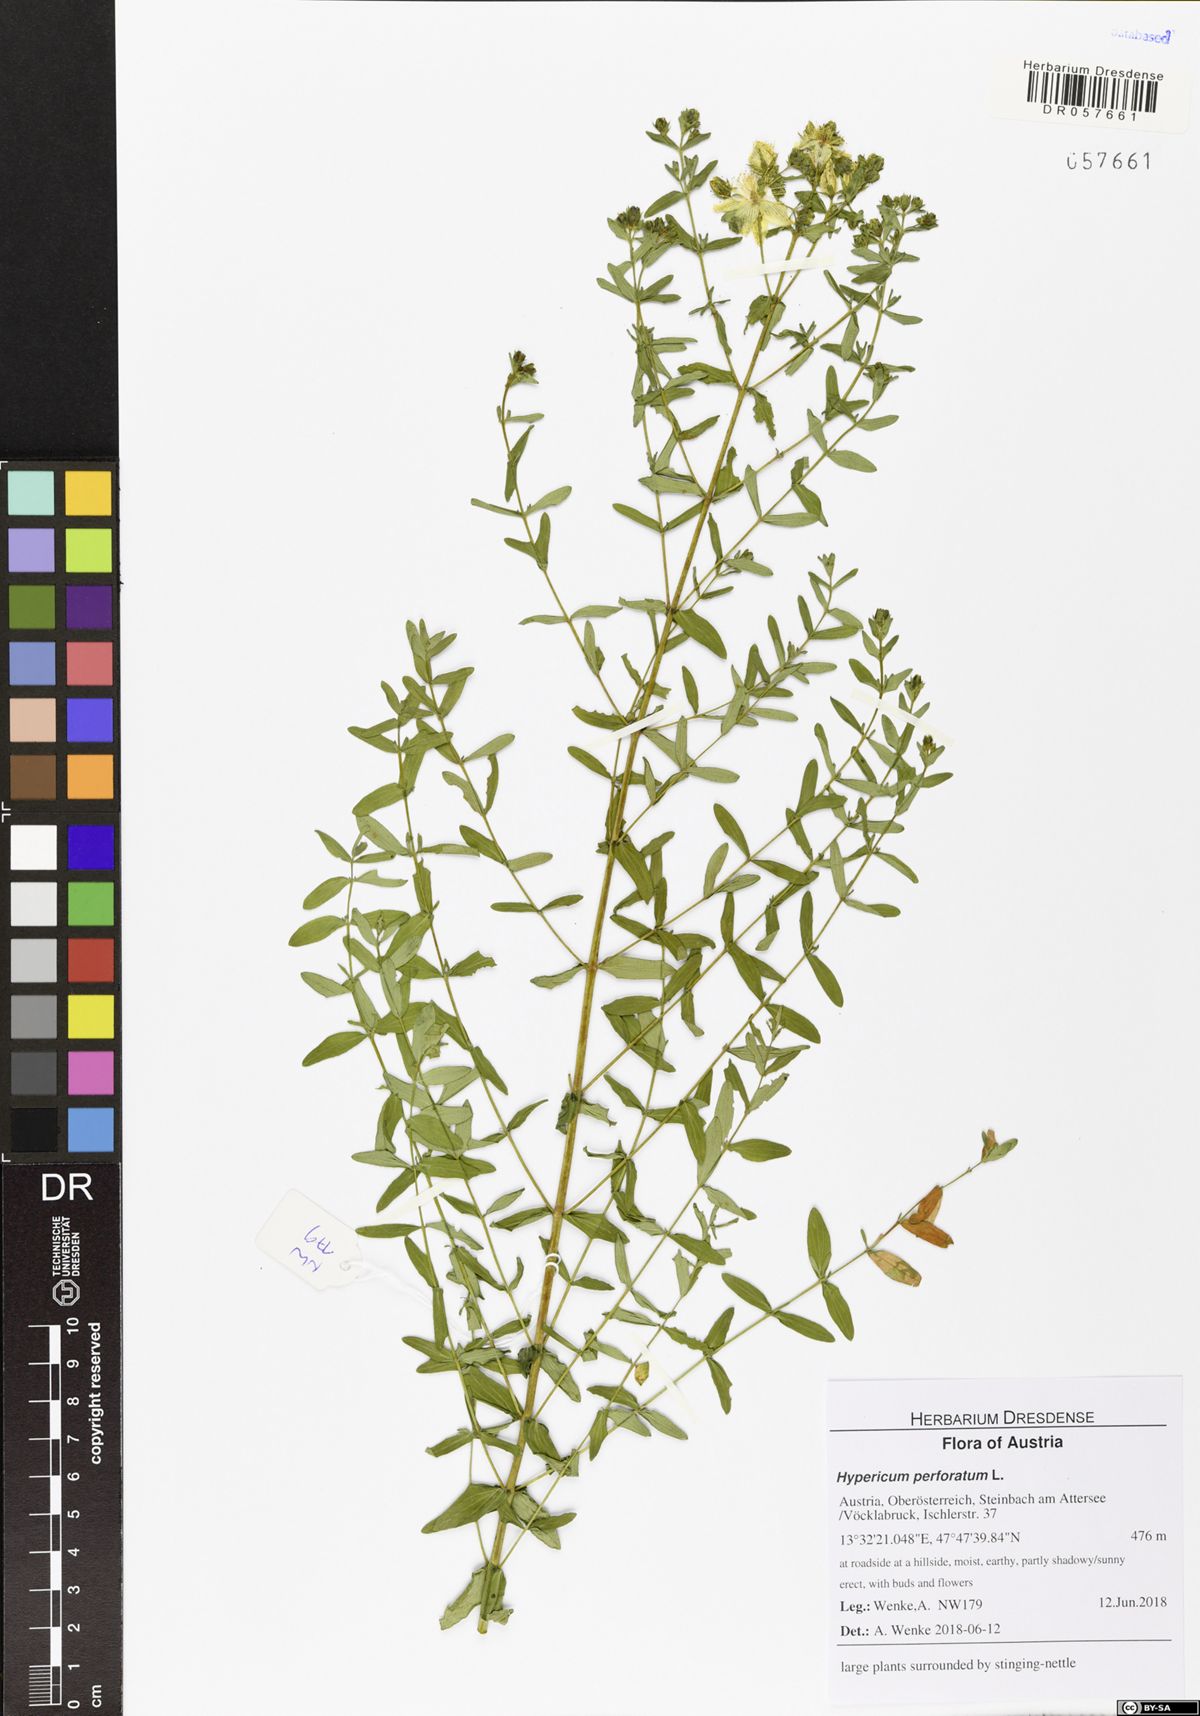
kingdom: Plantae
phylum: Tracheophyta
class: Magnoliopsida
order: Malpighiales
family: Hypericaceae
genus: Hypericum
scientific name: Hypericum perforatum
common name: Common st. johnswort
